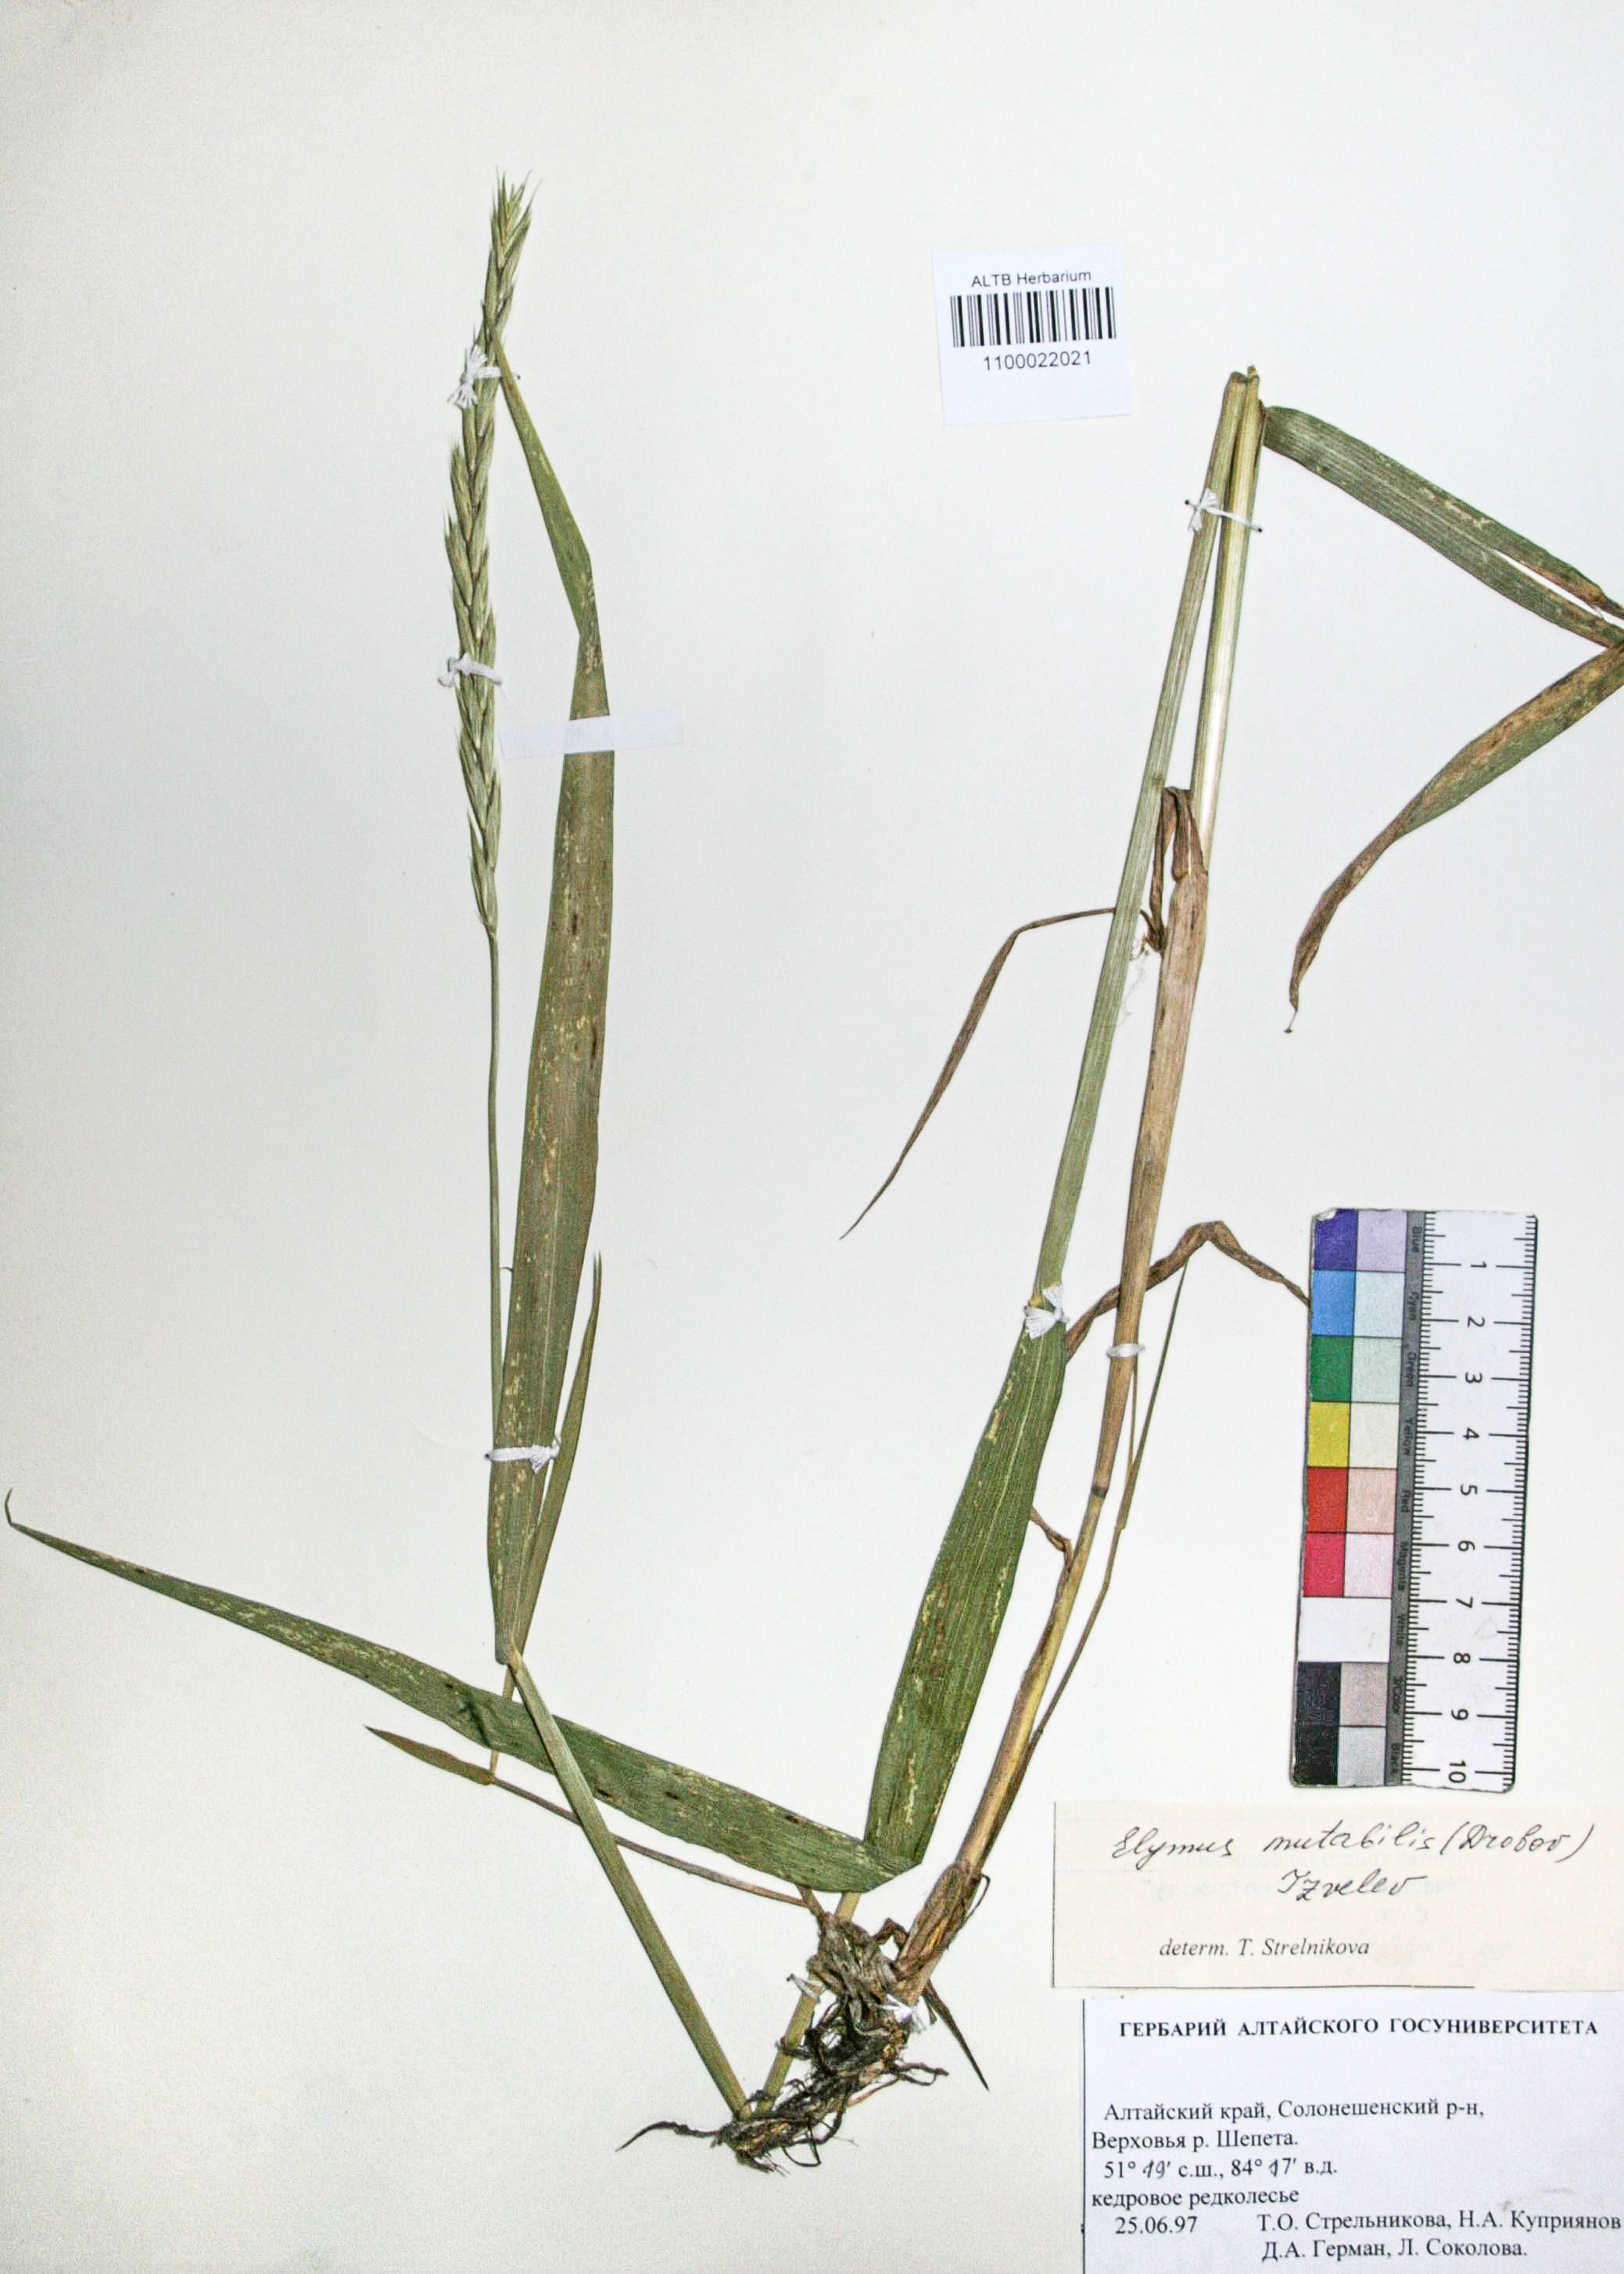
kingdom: Plantae
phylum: Tracheophyta
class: Liliopsida
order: Poales
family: Poaceae
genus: Elymus
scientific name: Elymus mutabilis
